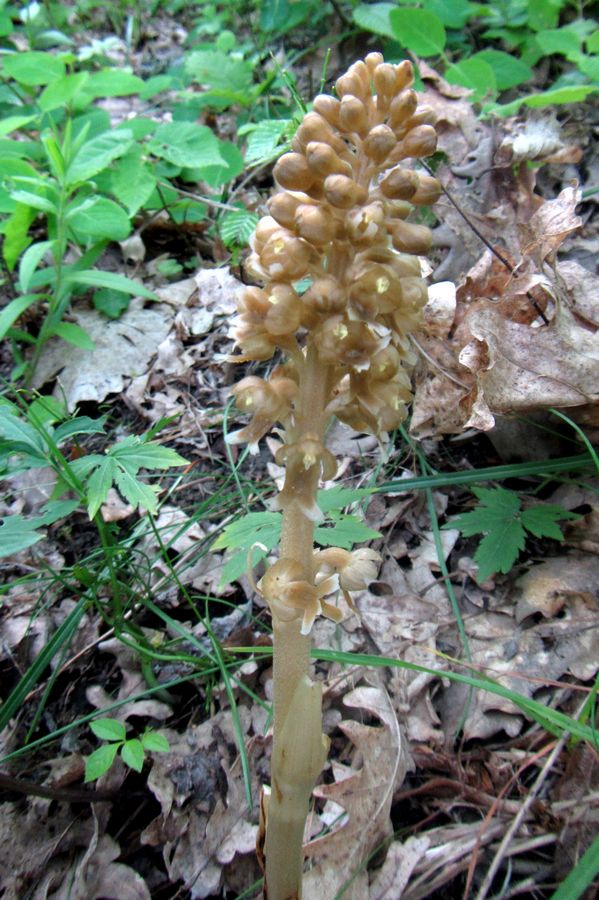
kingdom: Plantae
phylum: Tracheophyta
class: Liliopsida
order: Asparagales
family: Orchidaceae
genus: Neottia
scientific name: Neottia nidus-avis
